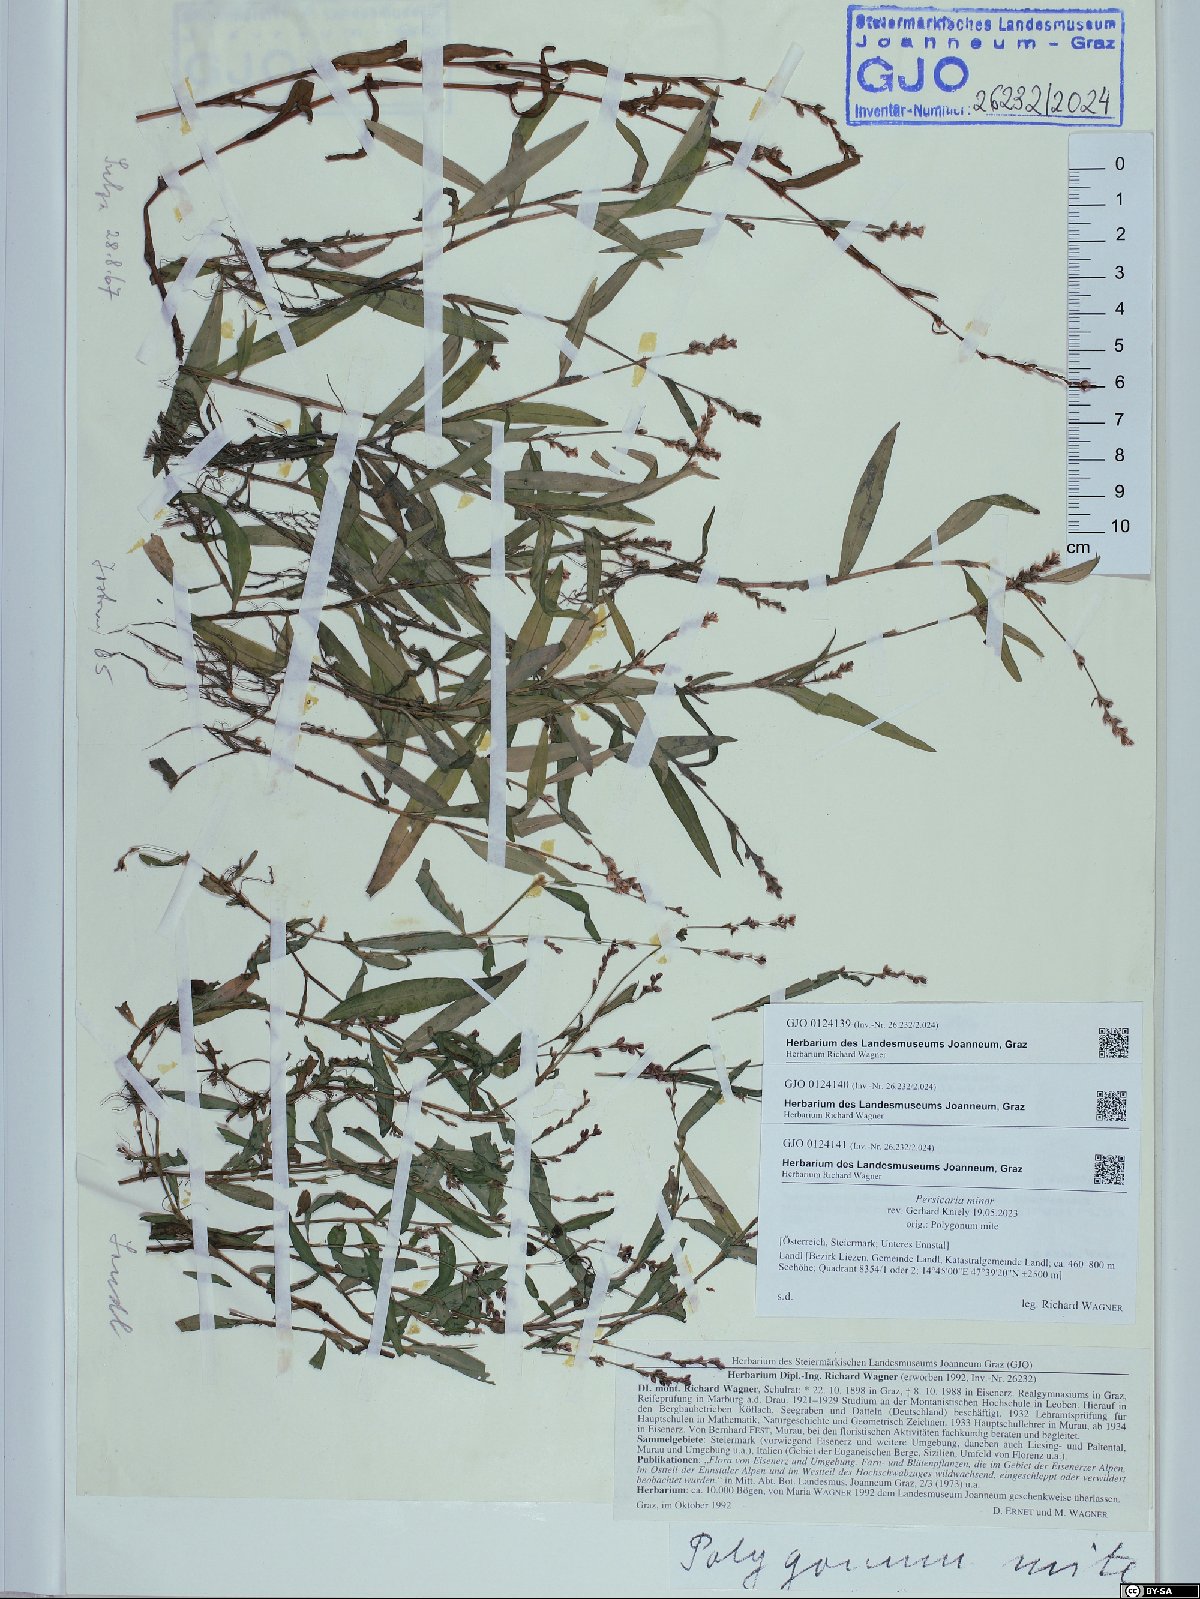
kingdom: Plantae
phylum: Tracheophyta
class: Magnoliopsida
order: Caryophyllales
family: Polygonaceae
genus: Persicaria
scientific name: Persicaria minor
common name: Small water-pepper
